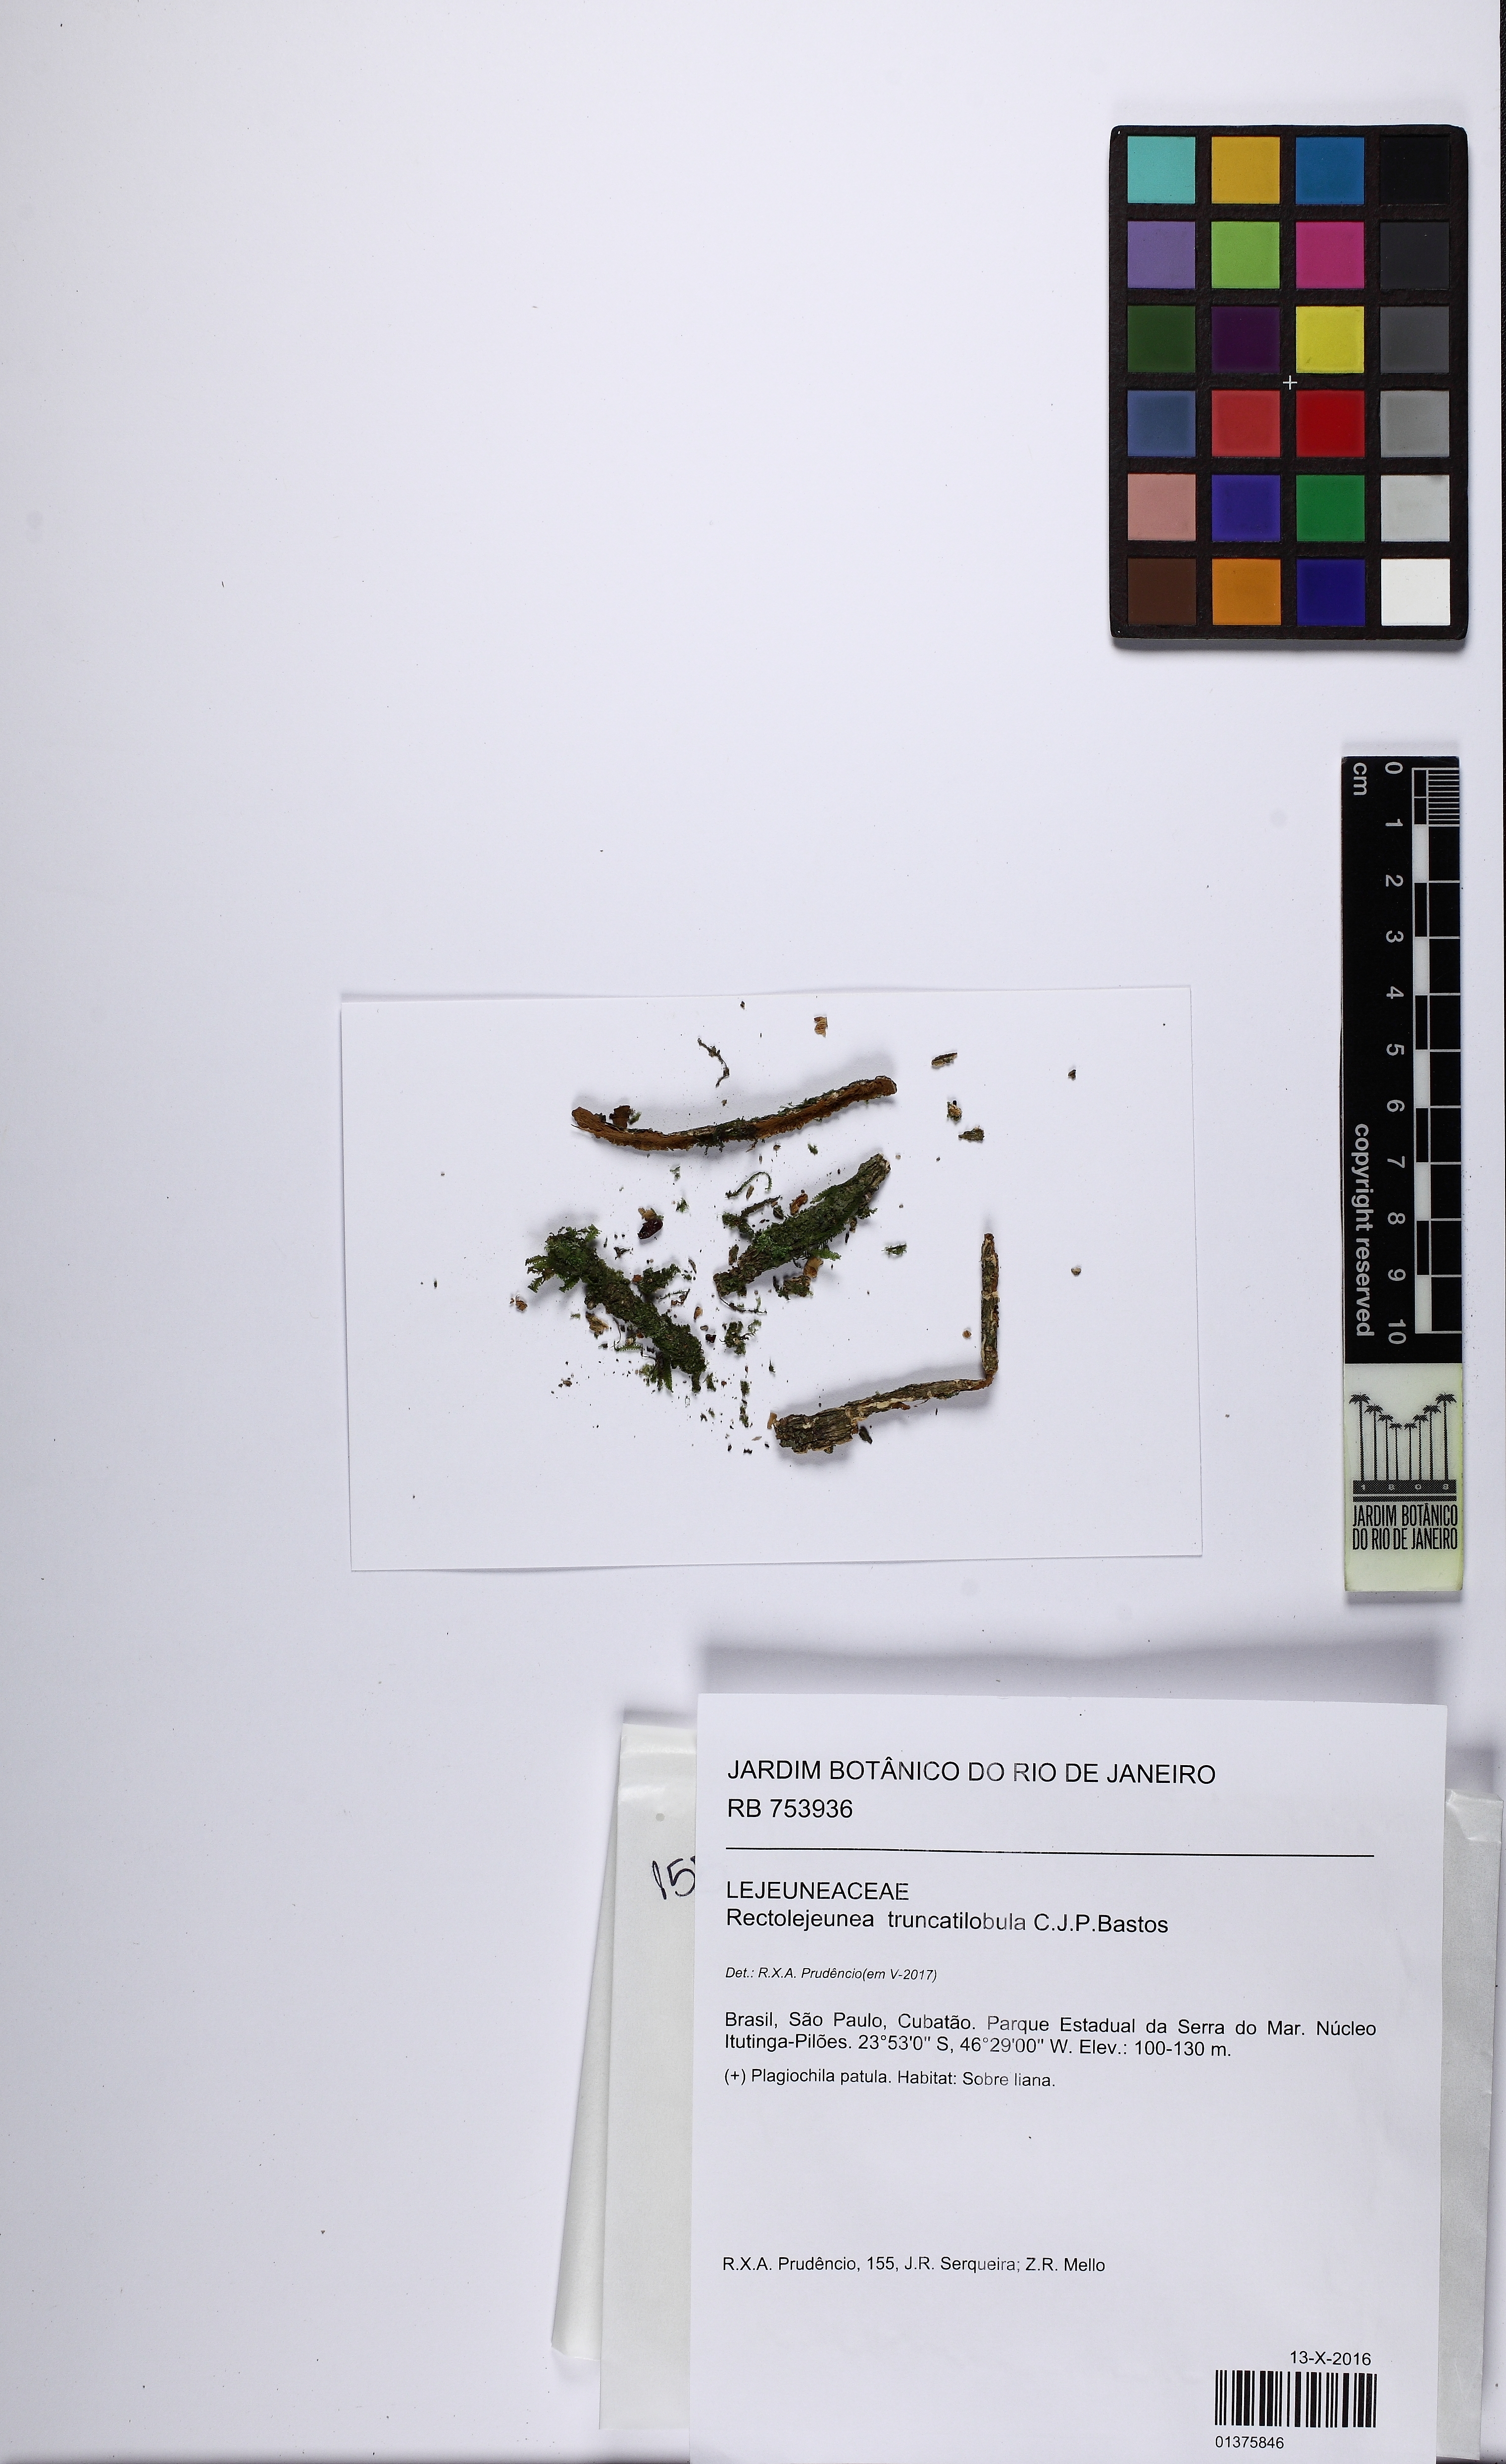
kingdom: Plantae
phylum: Marchantiophyta
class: Jungermanniopsida
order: Porellales
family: Lejeuneaceae
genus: Yanoella
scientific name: Yanoella truncatilobula
